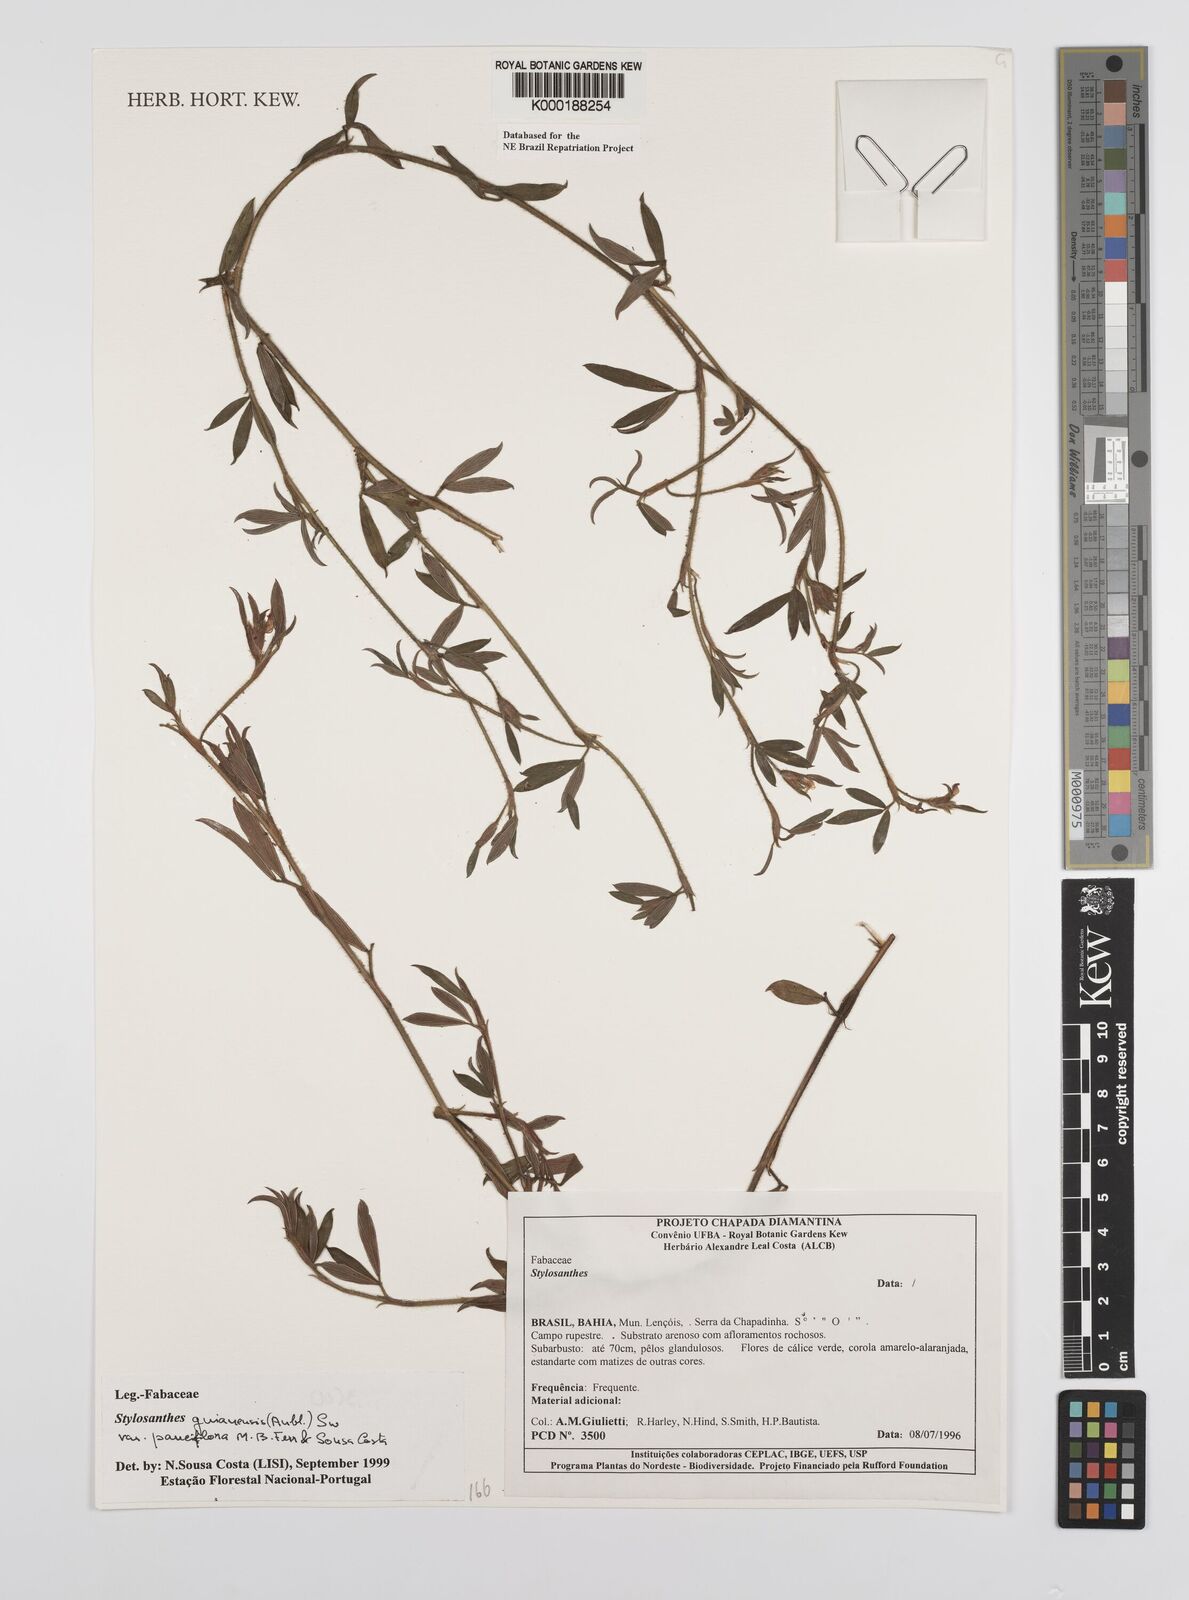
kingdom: Plantae
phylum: Tracheophyta
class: Magnoliopsida
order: Fabales
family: Fabaceae
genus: Stylosanthes
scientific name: Stylosanthes guianensis
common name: Pencil flower
